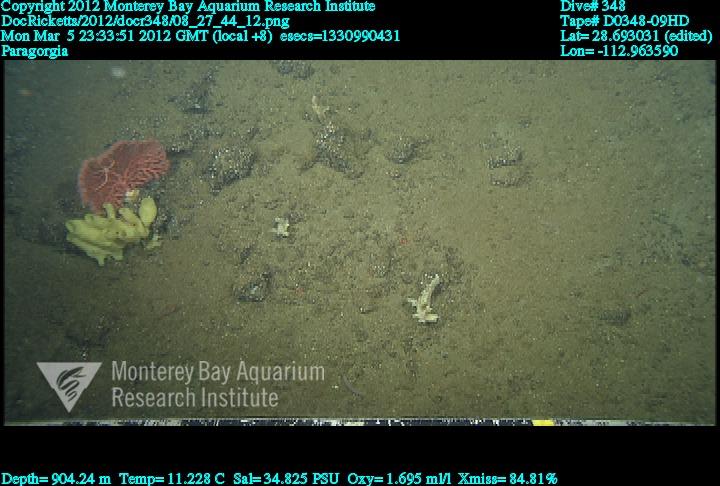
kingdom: Animalia
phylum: Cnidaria
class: Anthozoa
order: Scleralcyonacea
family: Coralliidae
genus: Paragorgia
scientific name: Paragorgia
